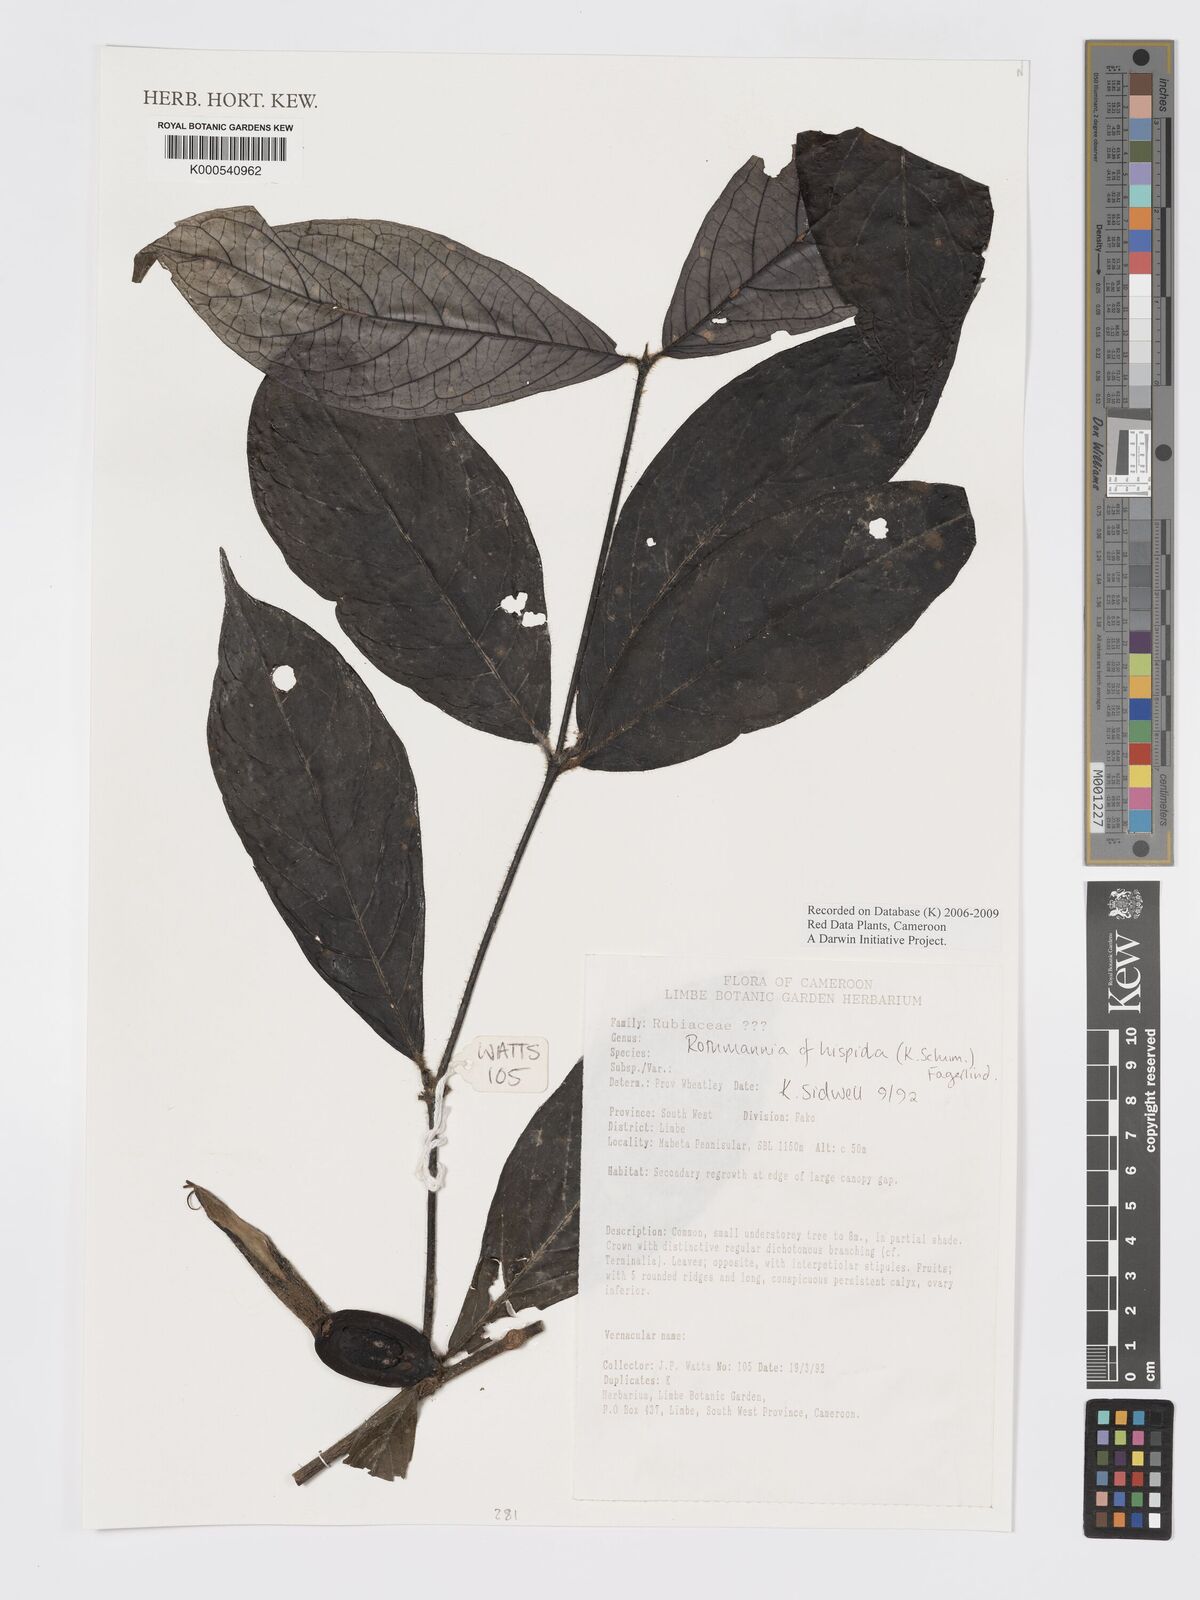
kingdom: Plantae
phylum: Tracheophyta
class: Magnoliopsida
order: Gentianales
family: Rubiaceae
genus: Rothmannia
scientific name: Rothmannia hispida
